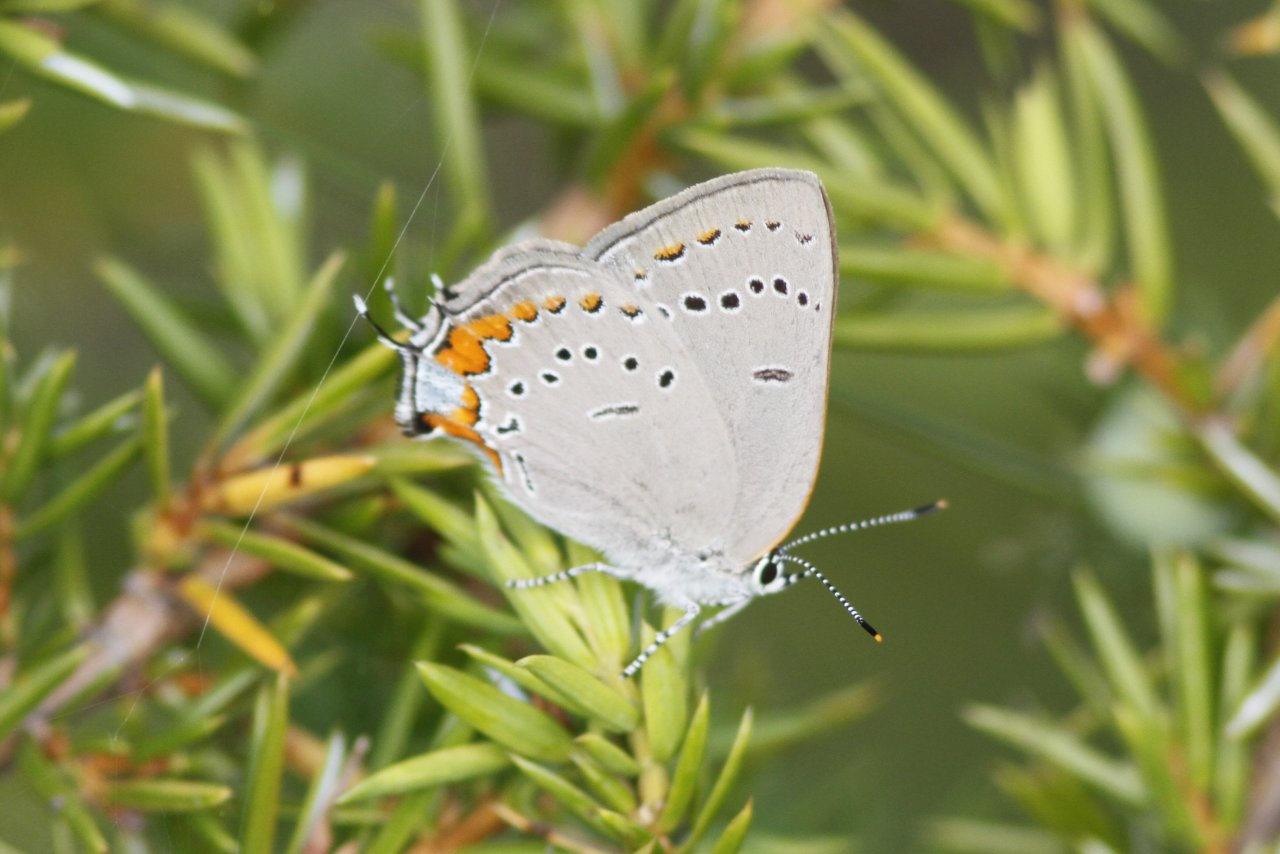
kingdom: Animalia
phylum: Arthropoda
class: Insecta
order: Lepidoptera
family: Lycaenidae
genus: Strymon
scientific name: Strymon acadica
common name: Acadian Hairstreak
